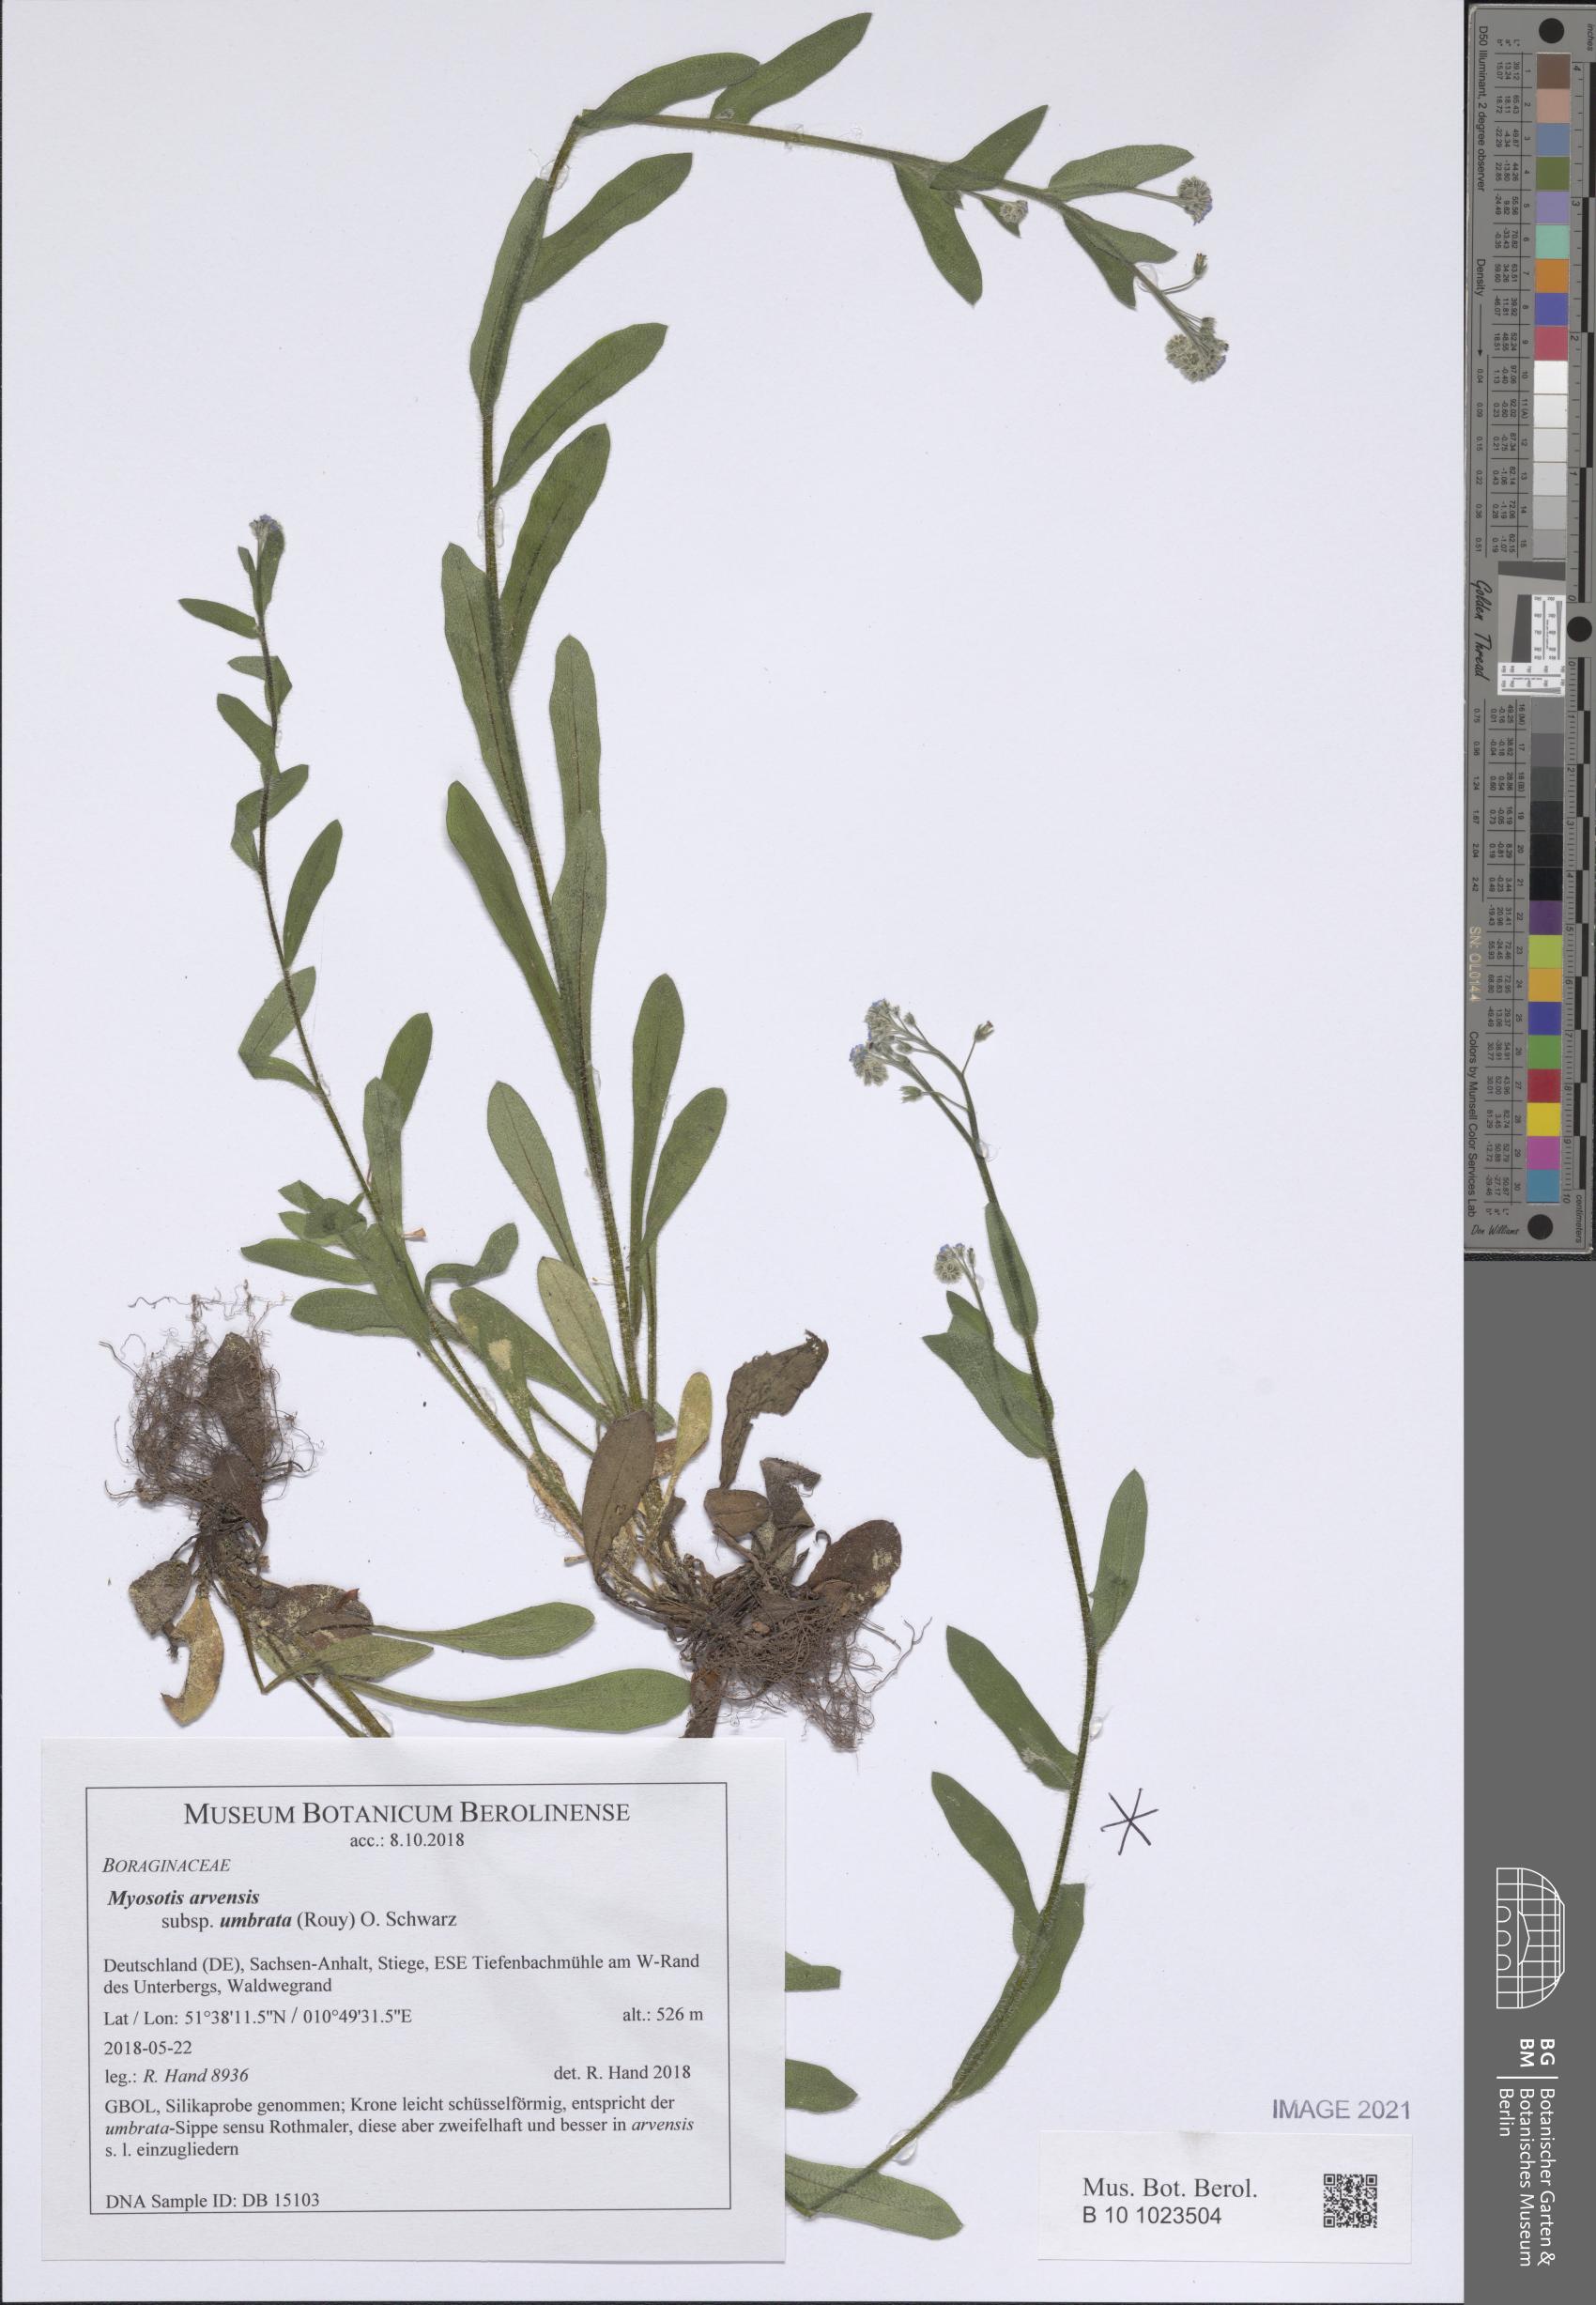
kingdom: Plantae
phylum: Tracheophyta
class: Magnoliopsida
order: Boraginales
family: Boraginaceae
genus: Myosotis
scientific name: Myosotis arvensis
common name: Field forget-me-not
